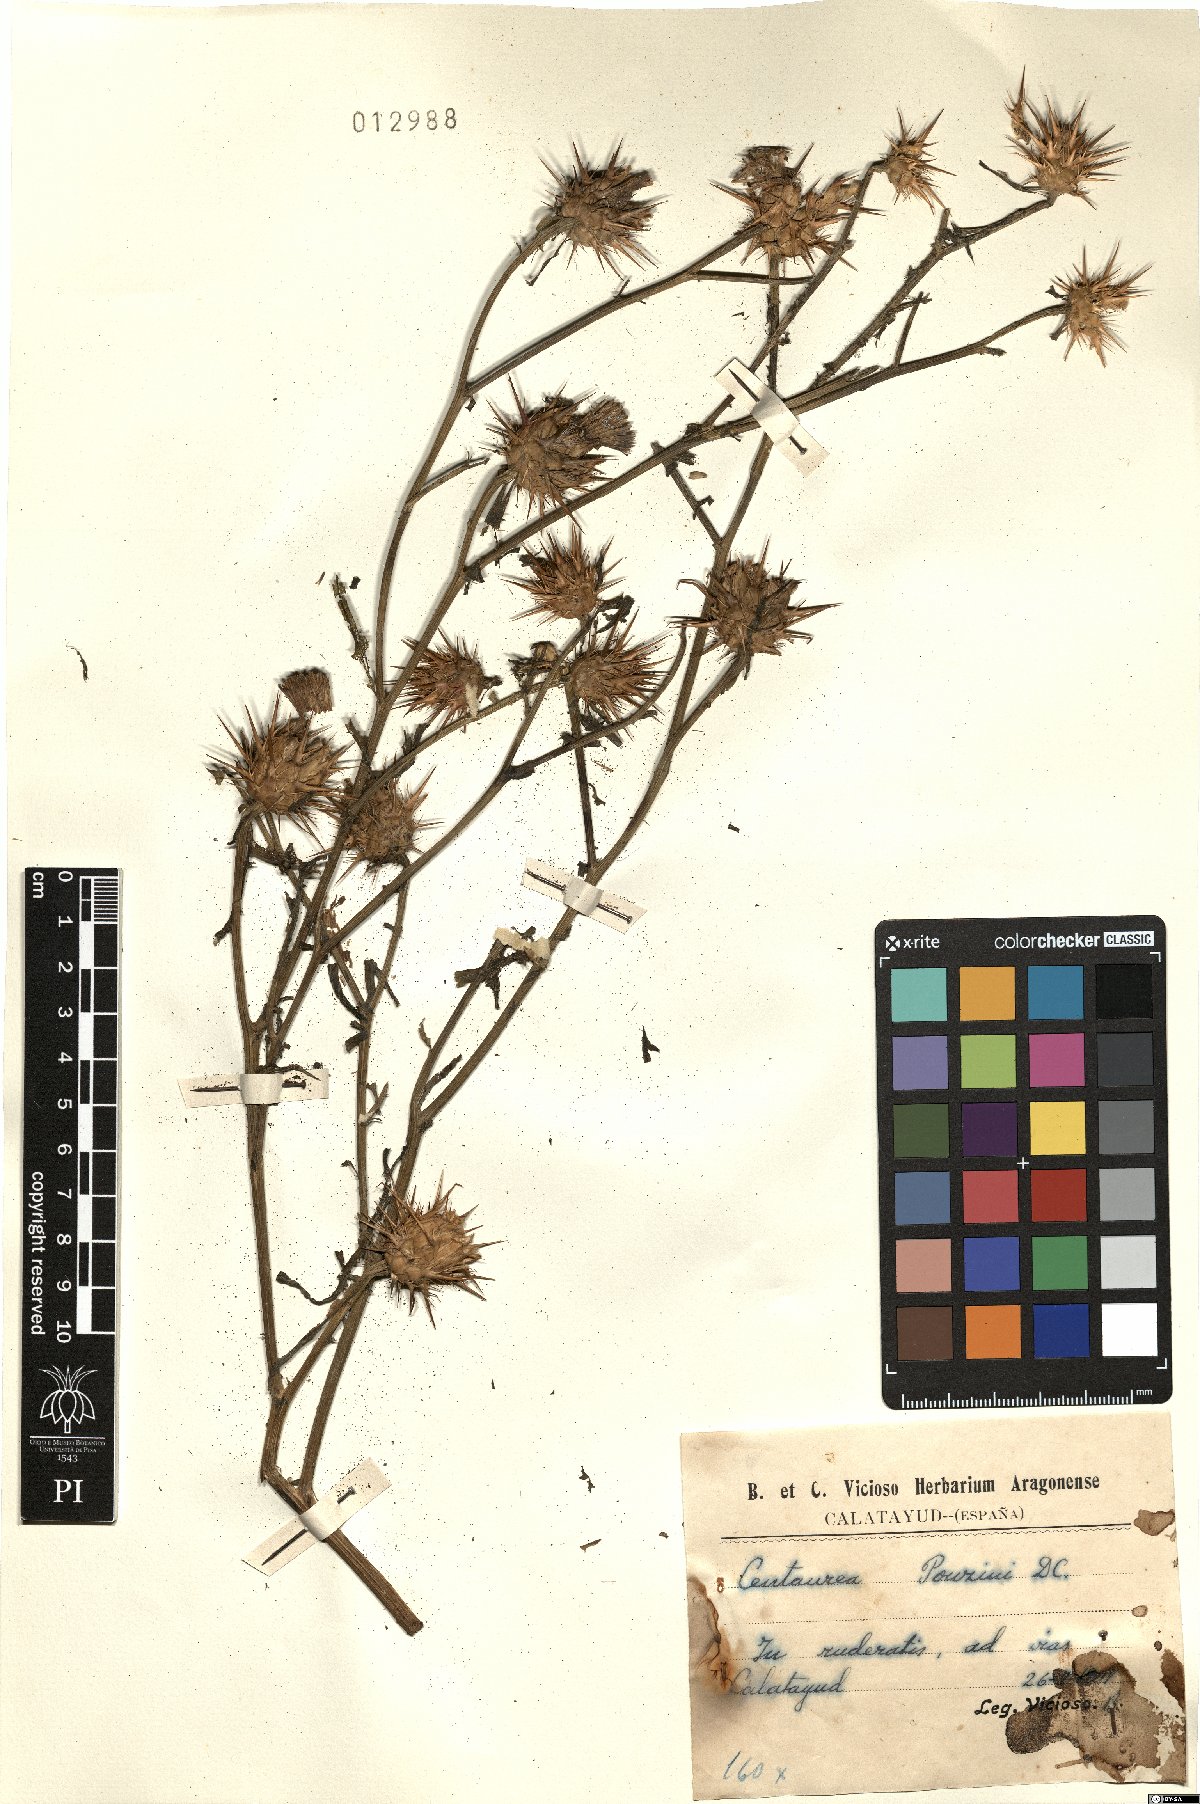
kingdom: Plantae
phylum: Tracheophyta
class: Magnoliopsida
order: Asterales
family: Asteraceae
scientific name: Asteraceae
